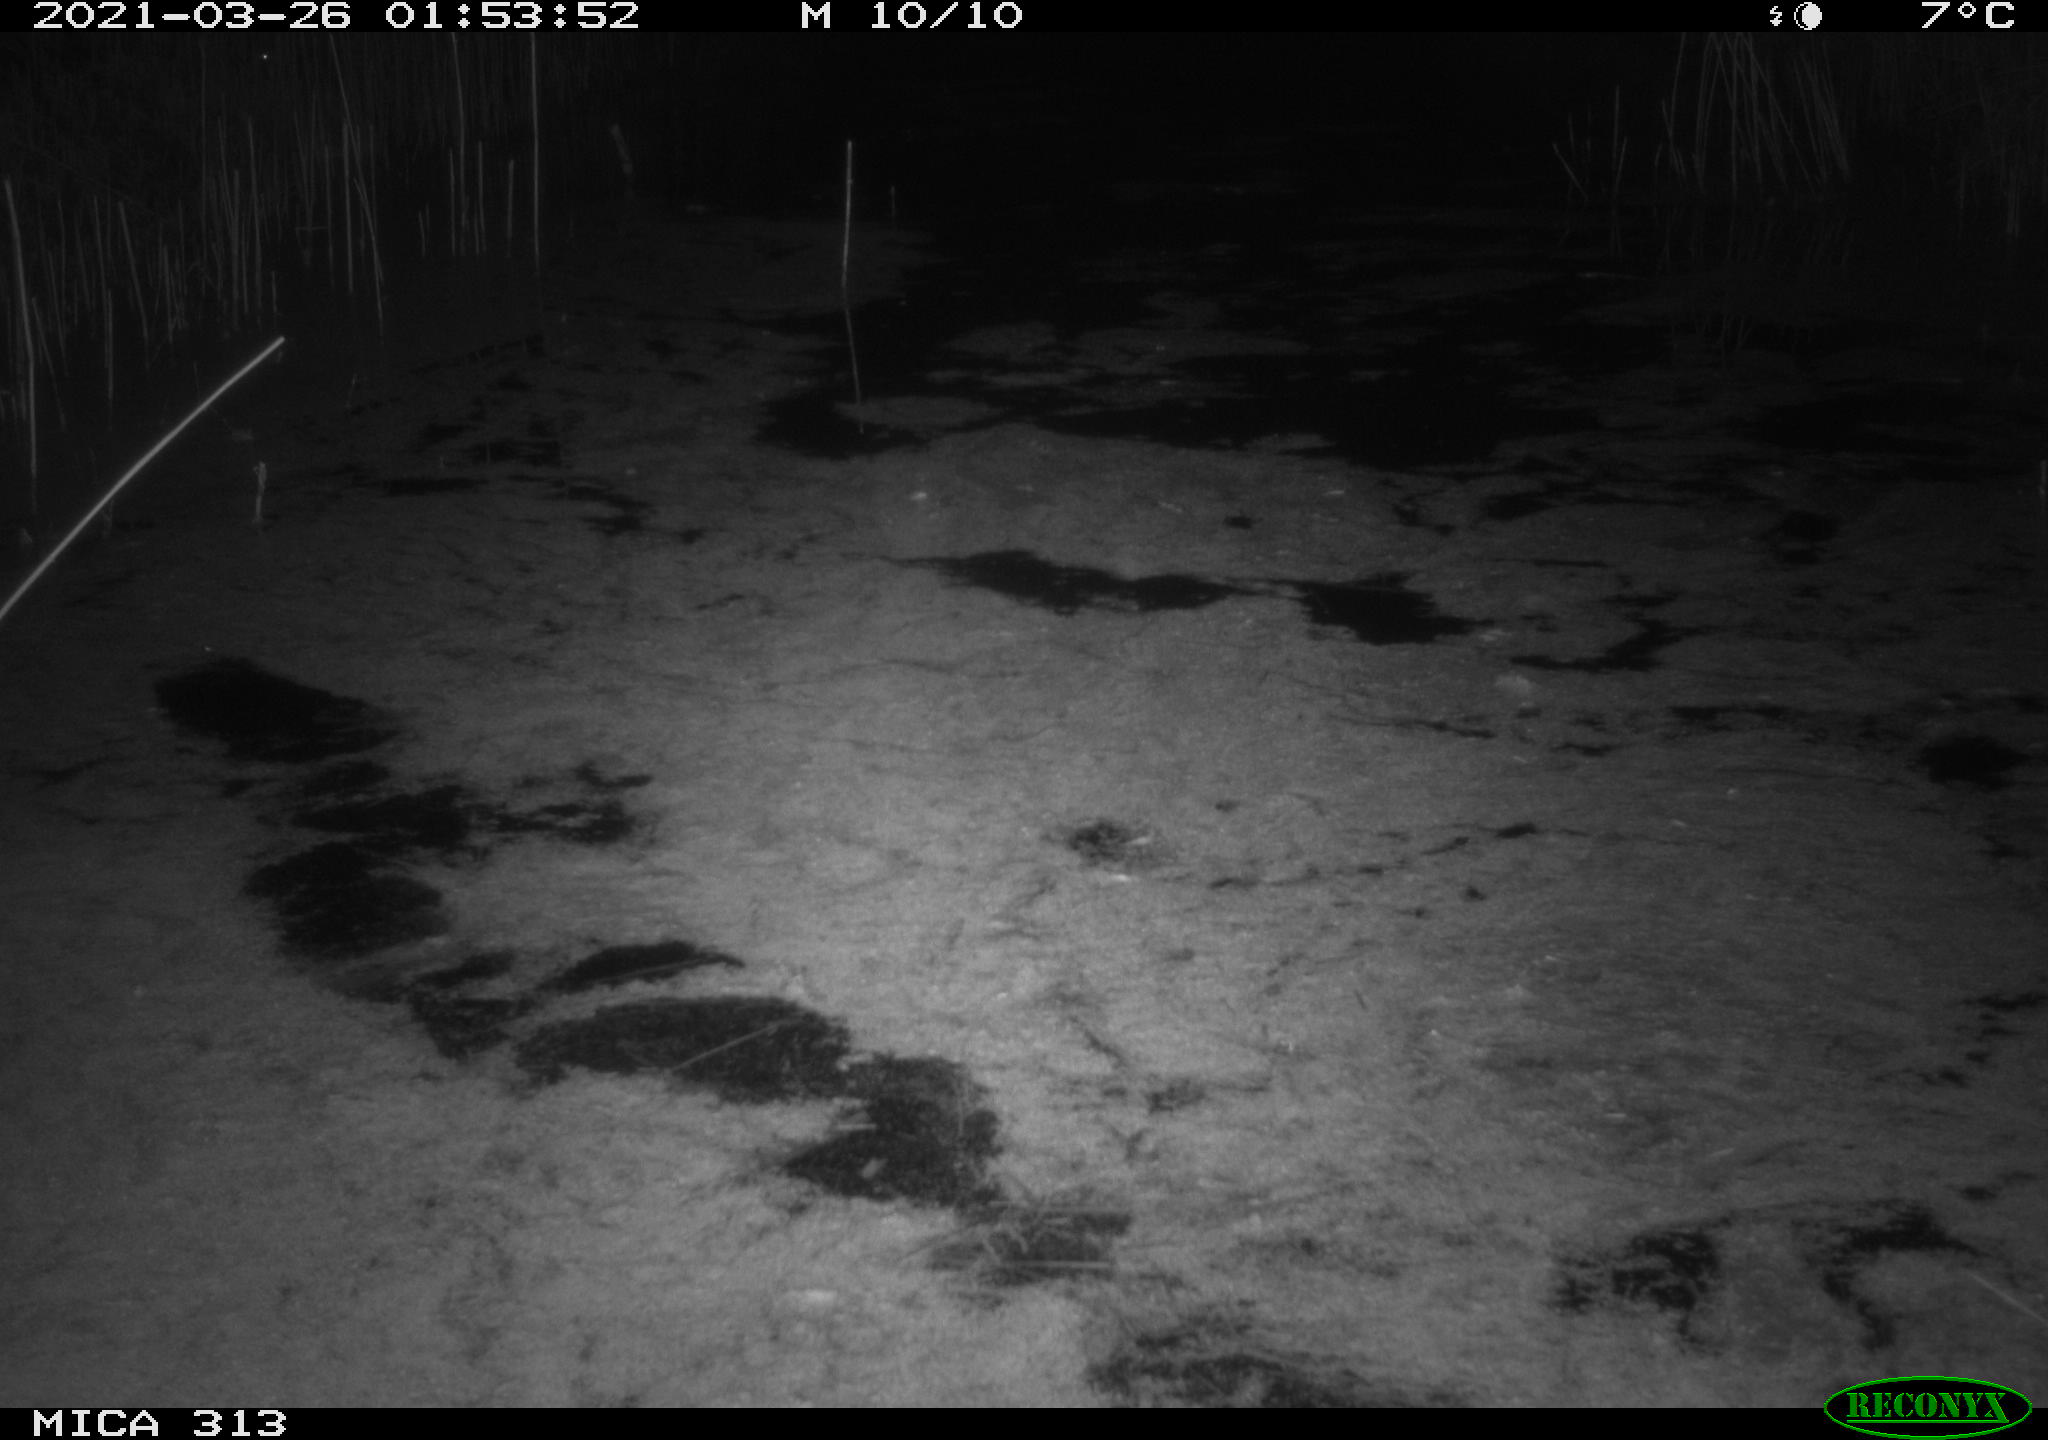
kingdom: Animalia
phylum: Chordata
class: Aves
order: Anseriformes
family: Anatidae
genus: Anas
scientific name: Anas platyrhynchos
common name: Mallard
